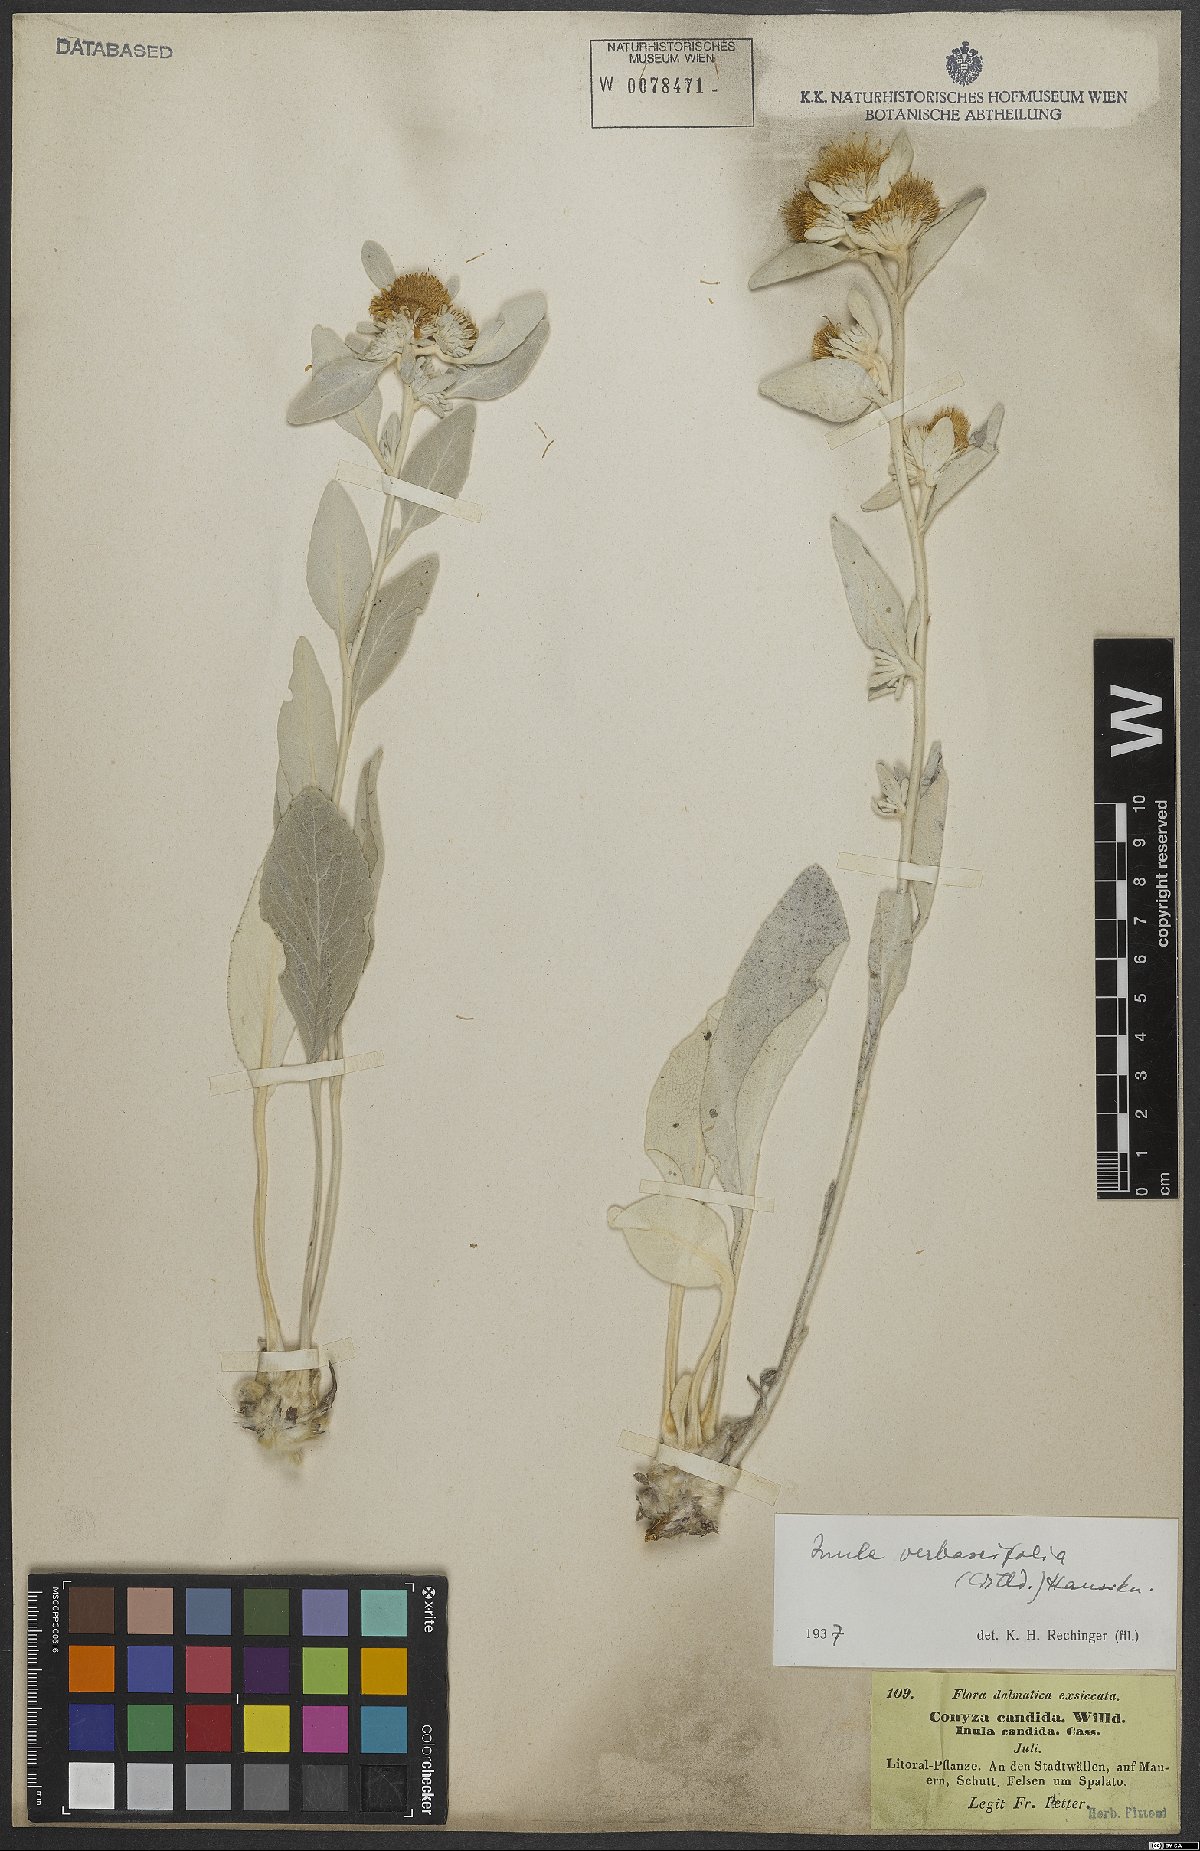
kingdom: Plantae
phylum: Tracheophyta
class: Magnoliopsida
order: Asterales
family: Asteraceae
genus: Pentanema
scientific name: Pentanema verbascifolium
